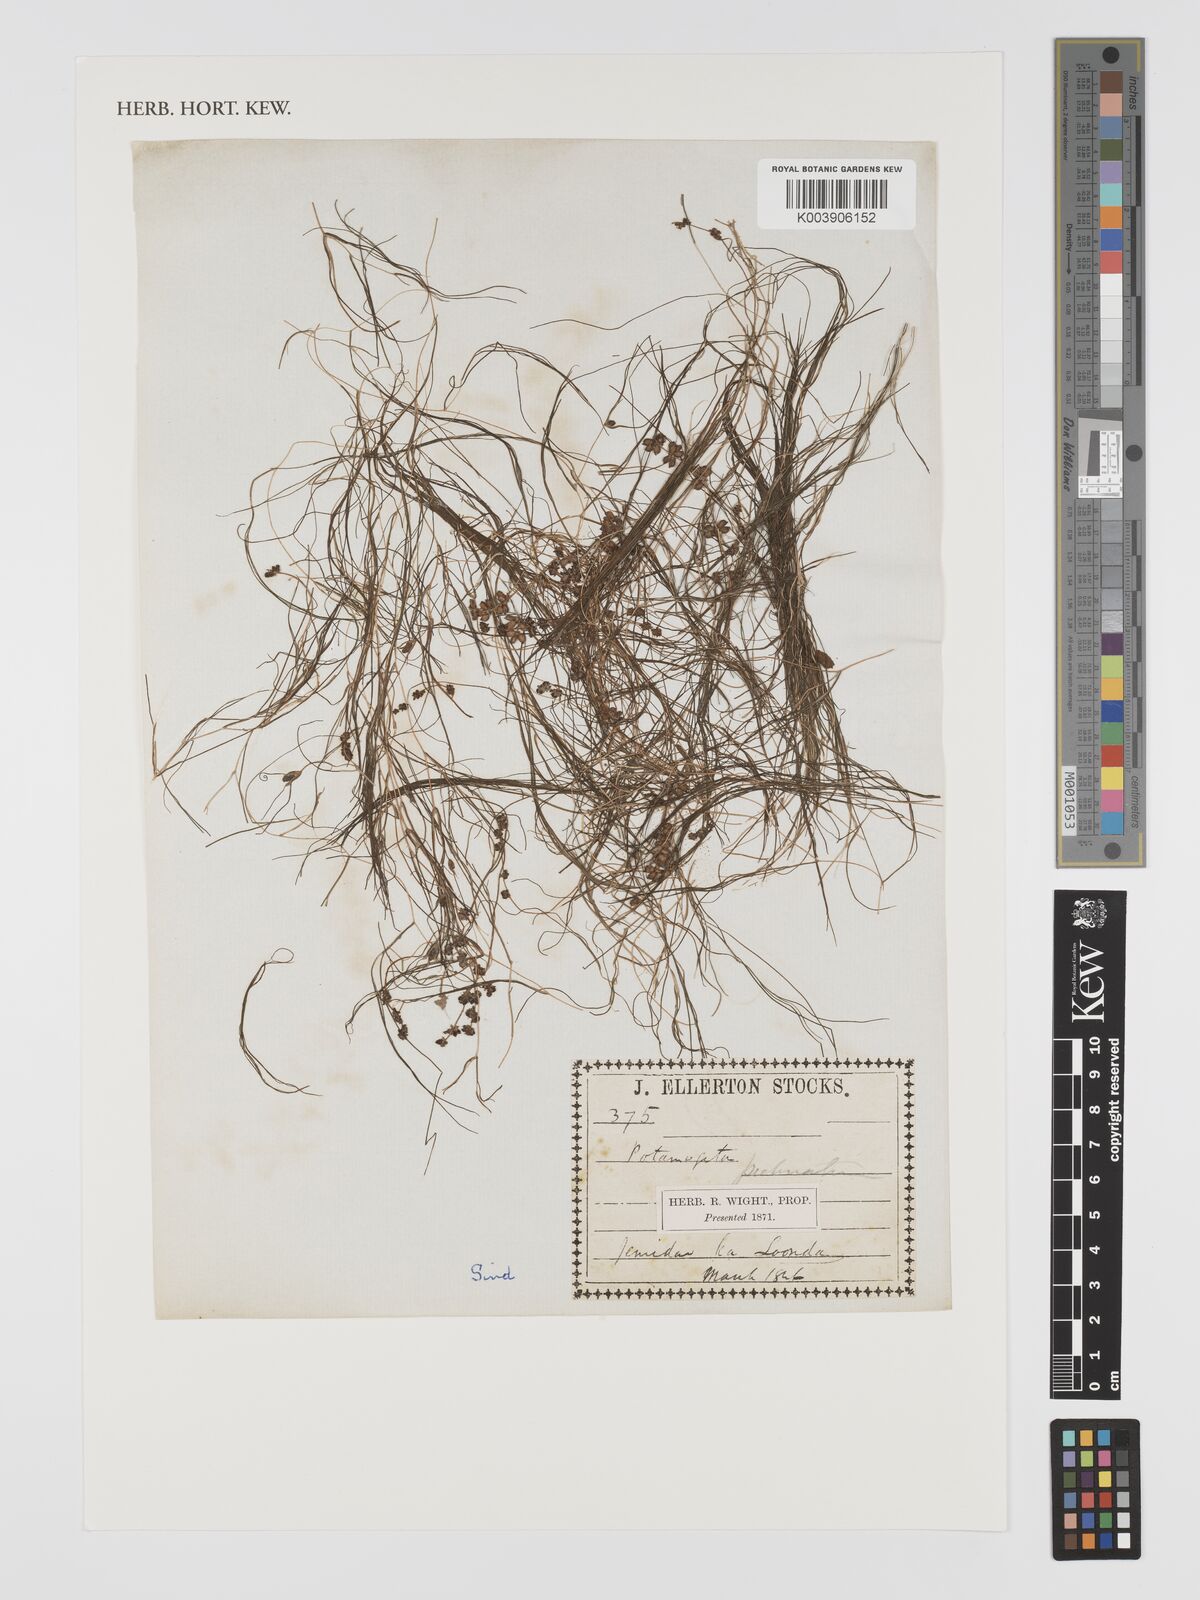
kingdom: Plantae
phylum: Tracheophyta
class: Liliopsida
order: Alismatales
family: Potamogetonaceae
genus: Stuckenia
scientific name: Stuckenia pectinata
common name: Sago pondweed
